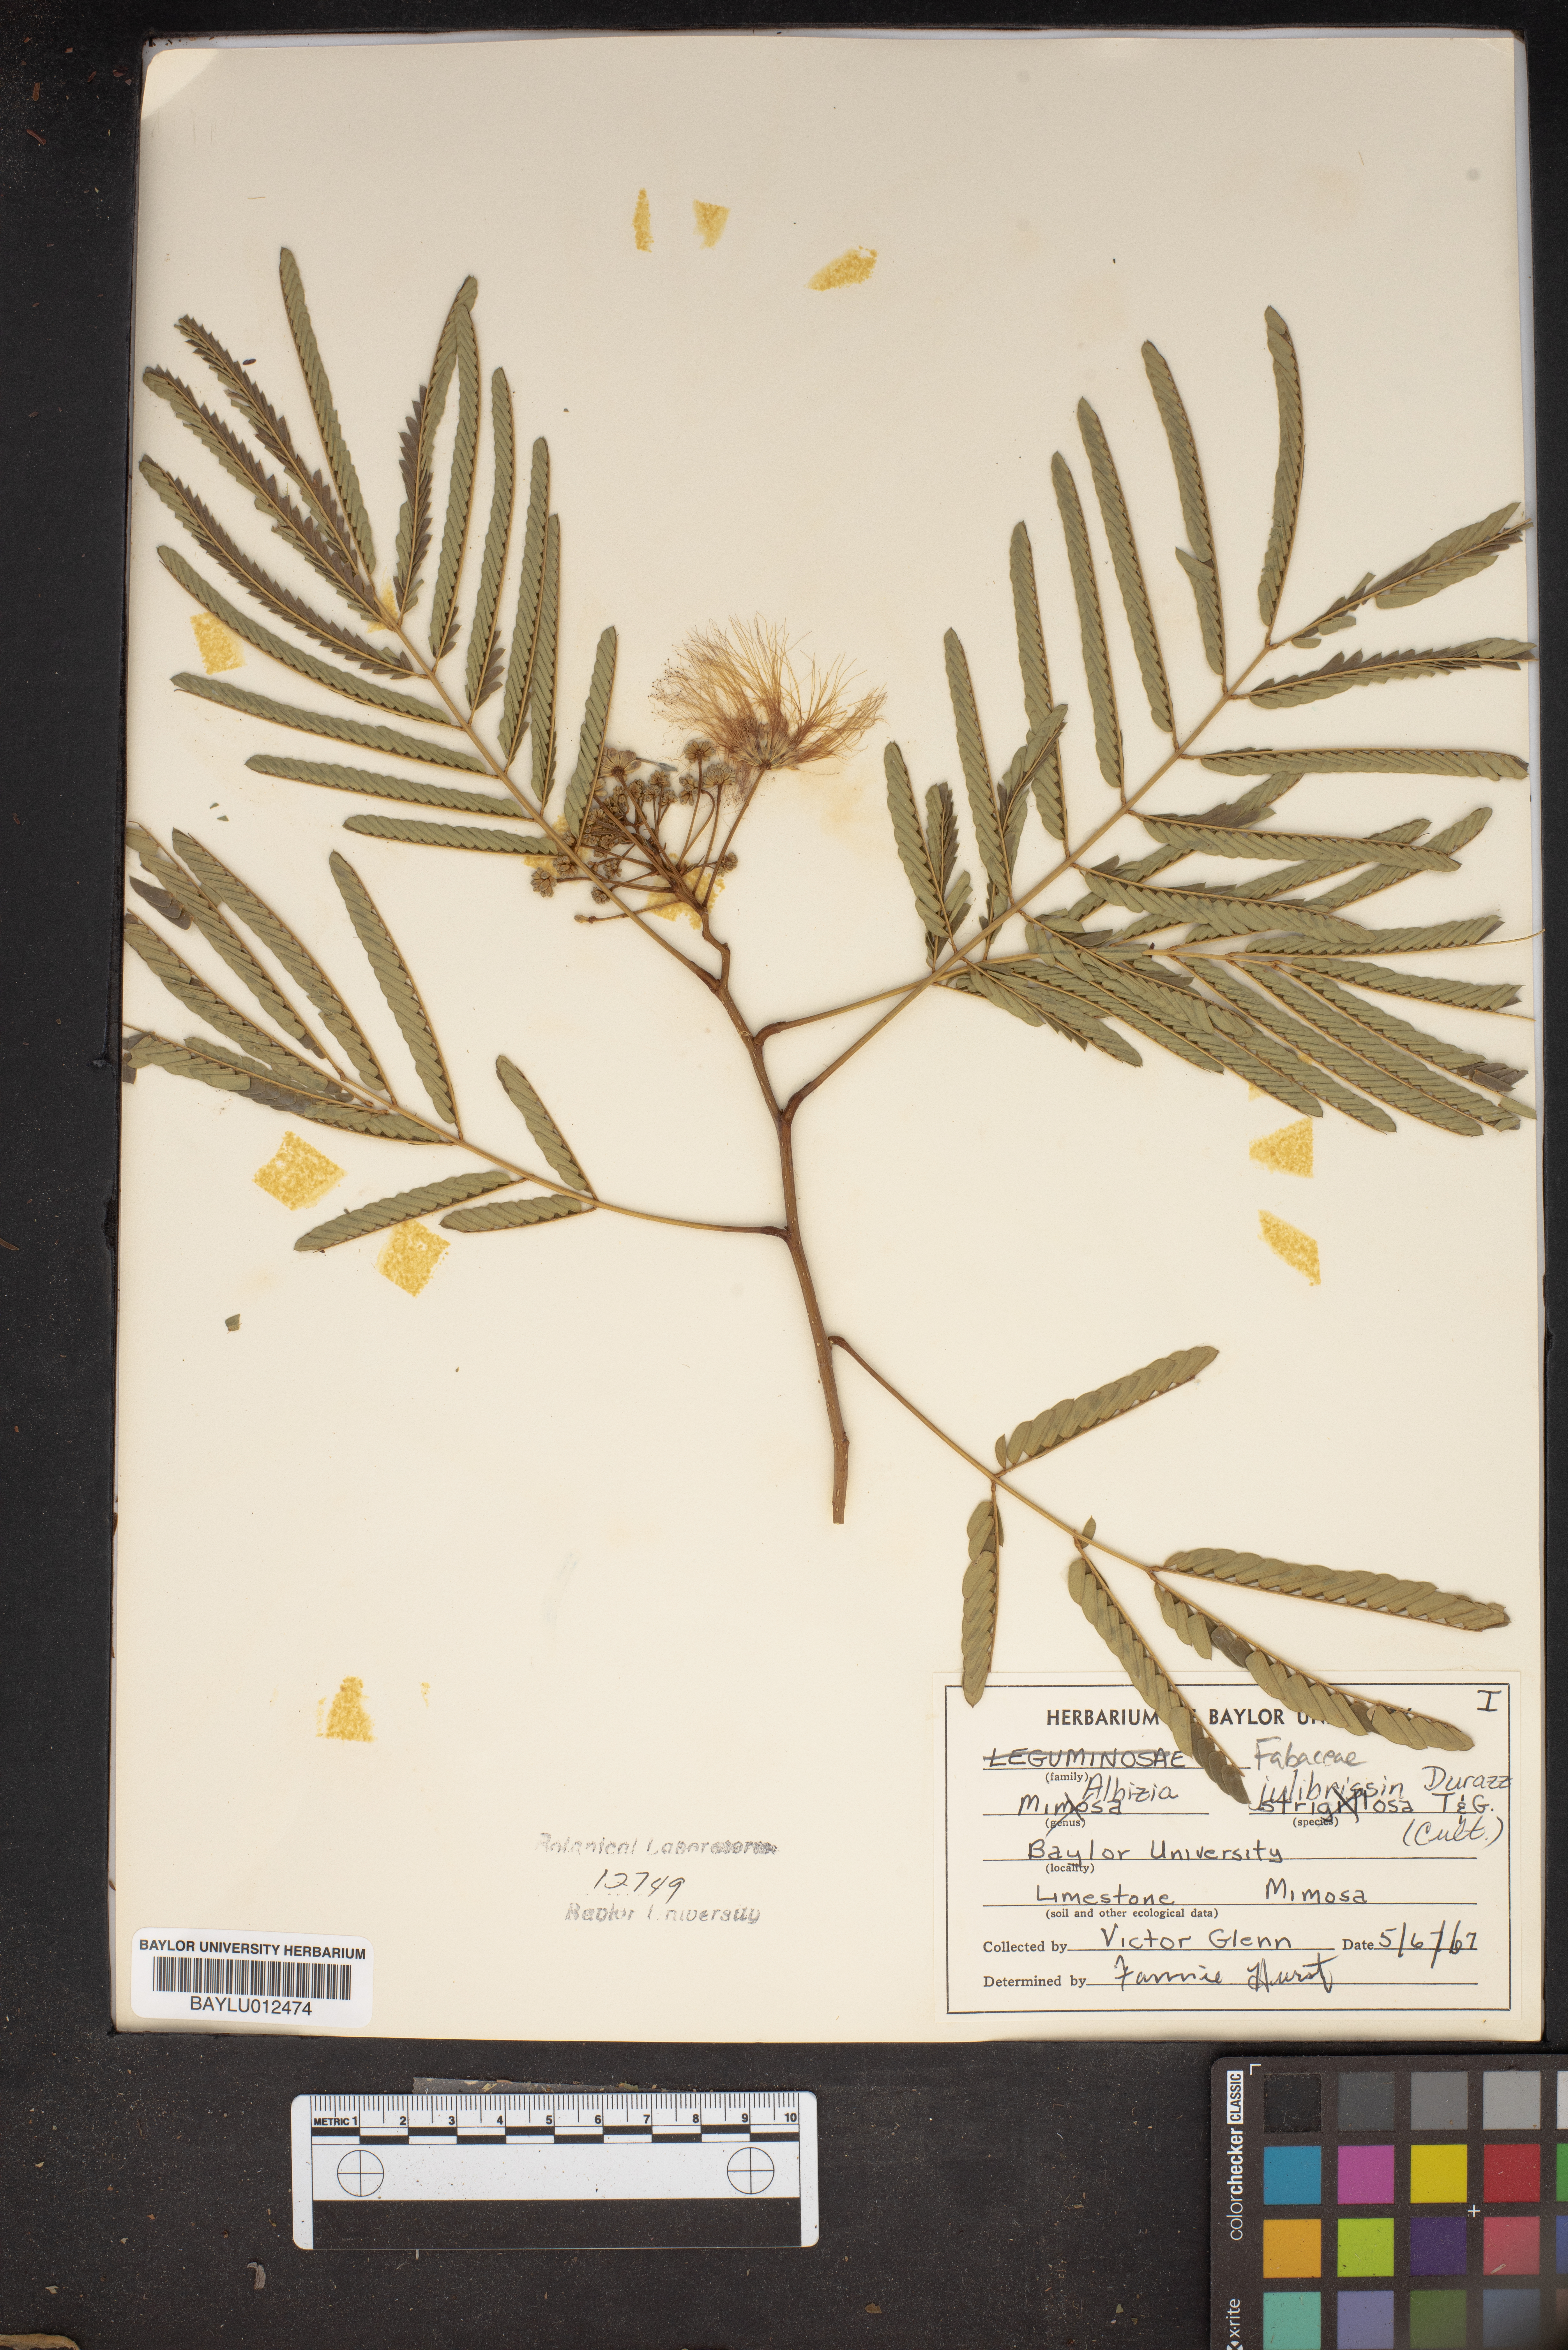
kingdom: Plantae
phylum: Tracheophyta
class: Magnoliopsida
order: Fabales
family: Fabaceae
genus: Albizia
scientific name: Albizia julibrissin
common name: Silktree
